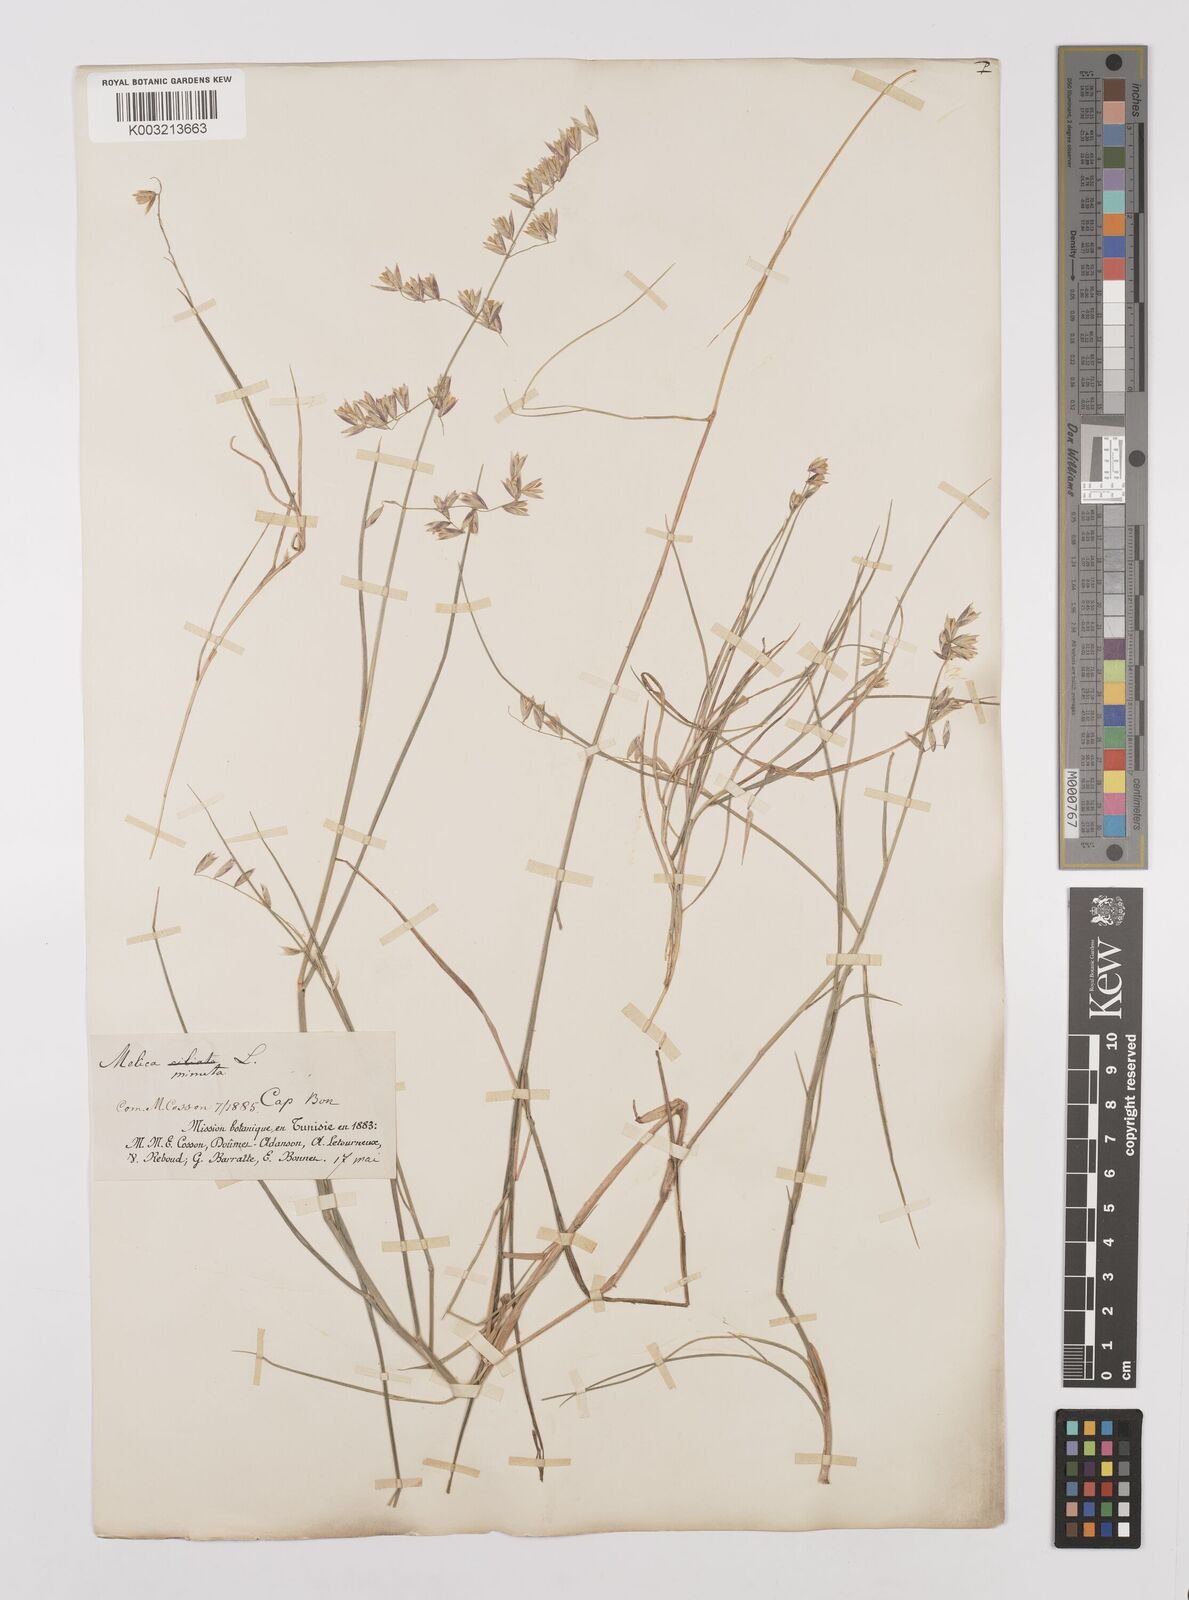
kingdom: Plantae
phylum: Tracheophyta
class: Liliopsida
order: Poales
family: Poaceae
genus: Melica
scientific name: Melica minuta
